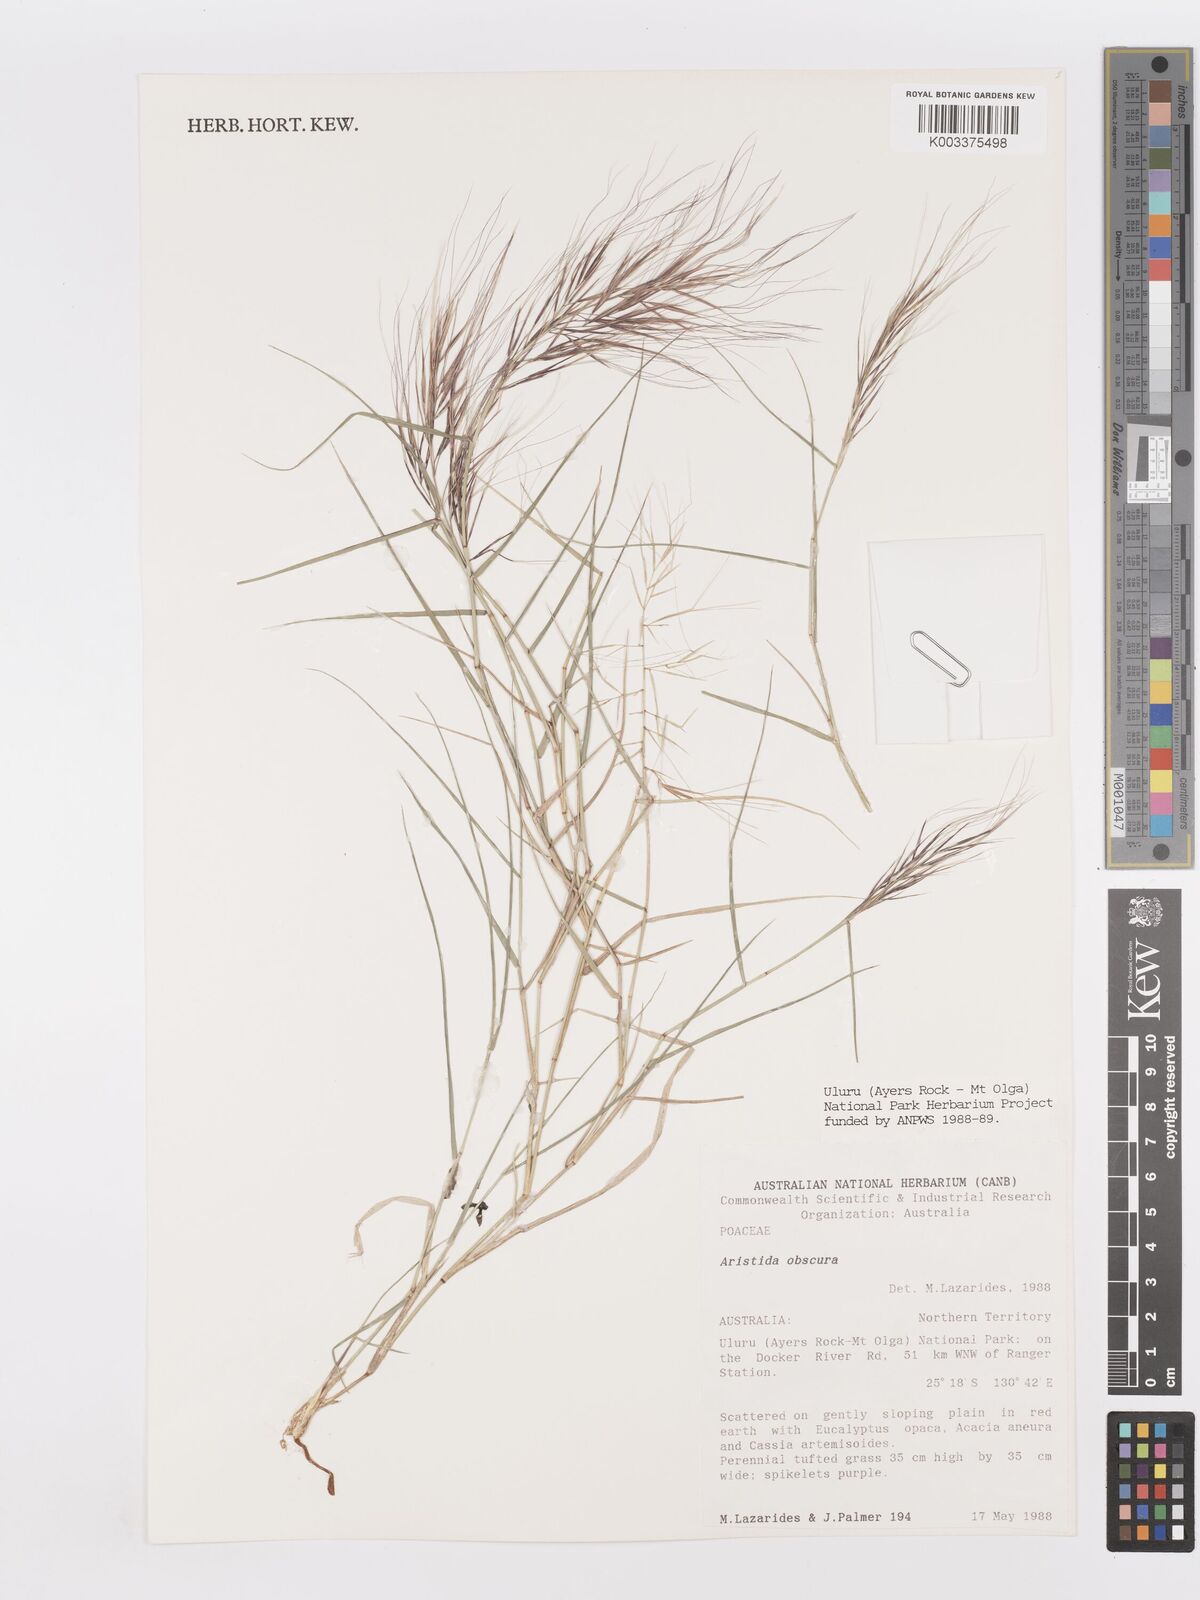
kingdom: Plantae
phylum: Tracheophyta
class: Liliopsida
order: Poales
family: Poaceae
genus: Aristida
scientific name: Aristida obscura
